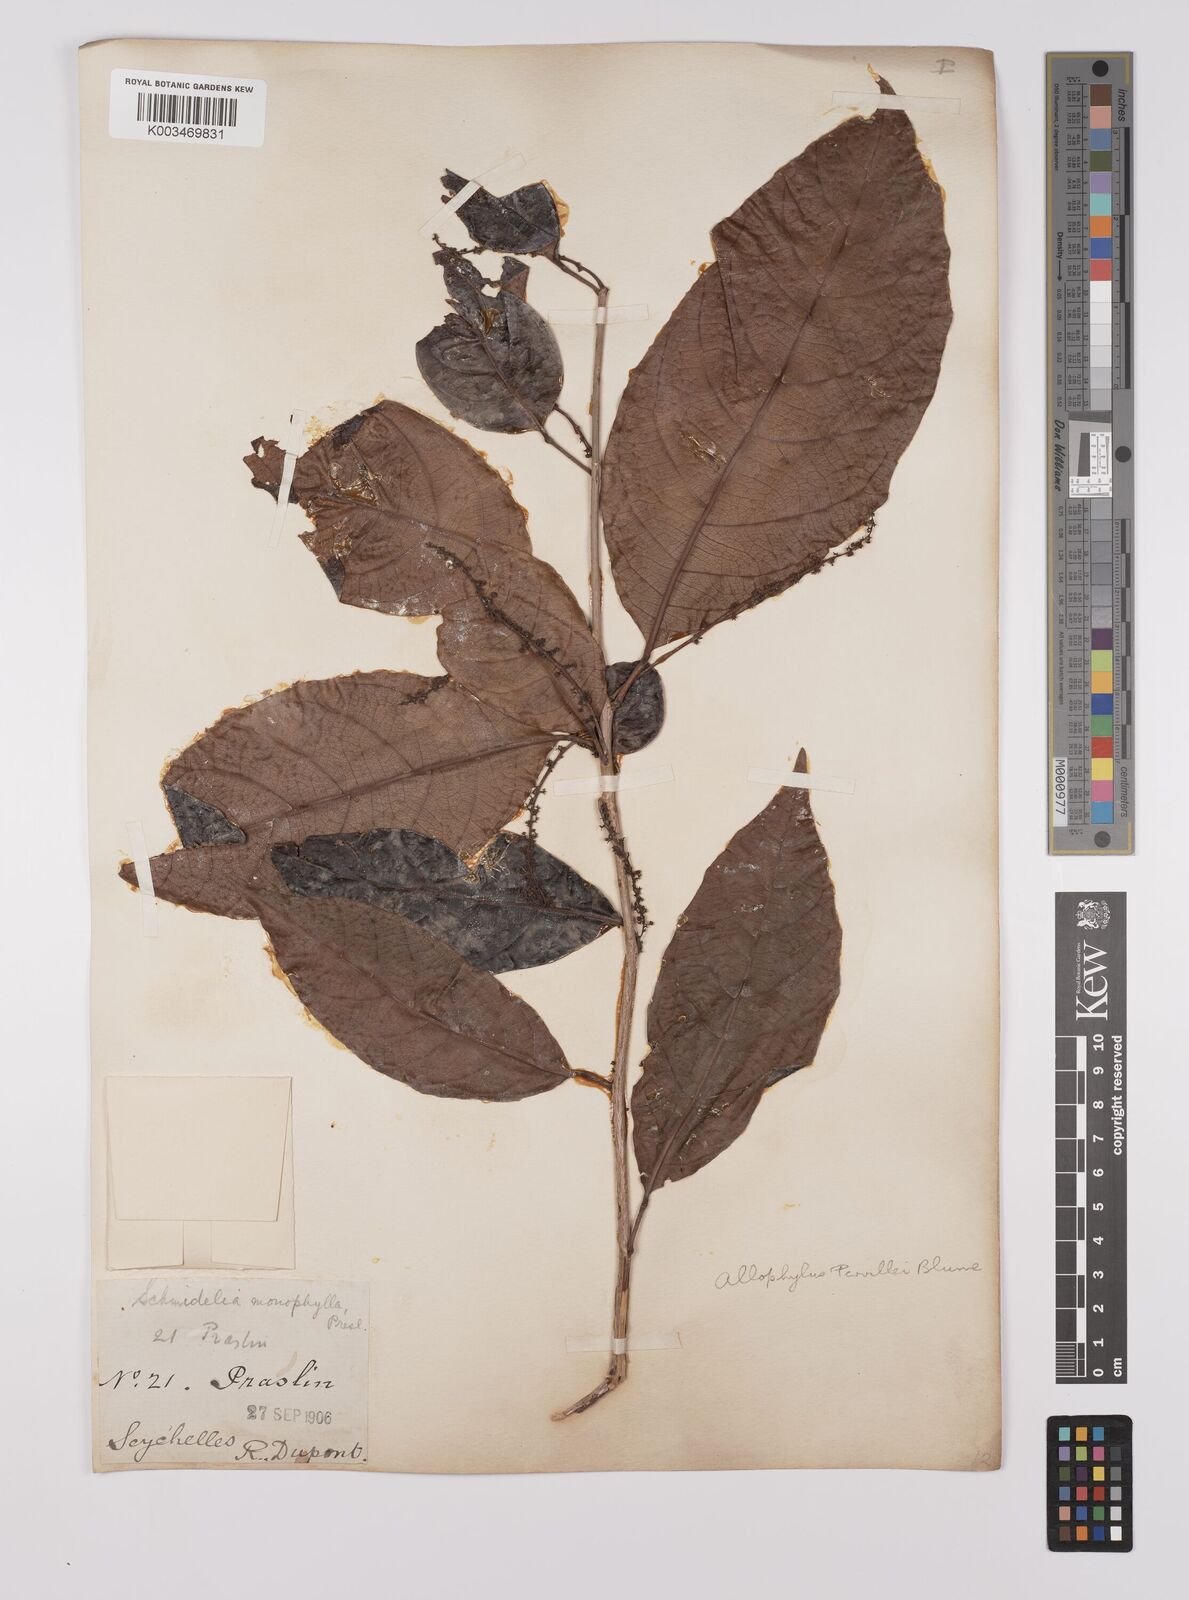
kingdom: Plantae
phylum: Tracheophyta
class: Magnoliopsida
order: Sapindales
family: Sapindaceae
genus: Allophylus
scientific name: Allophylus pervillei
